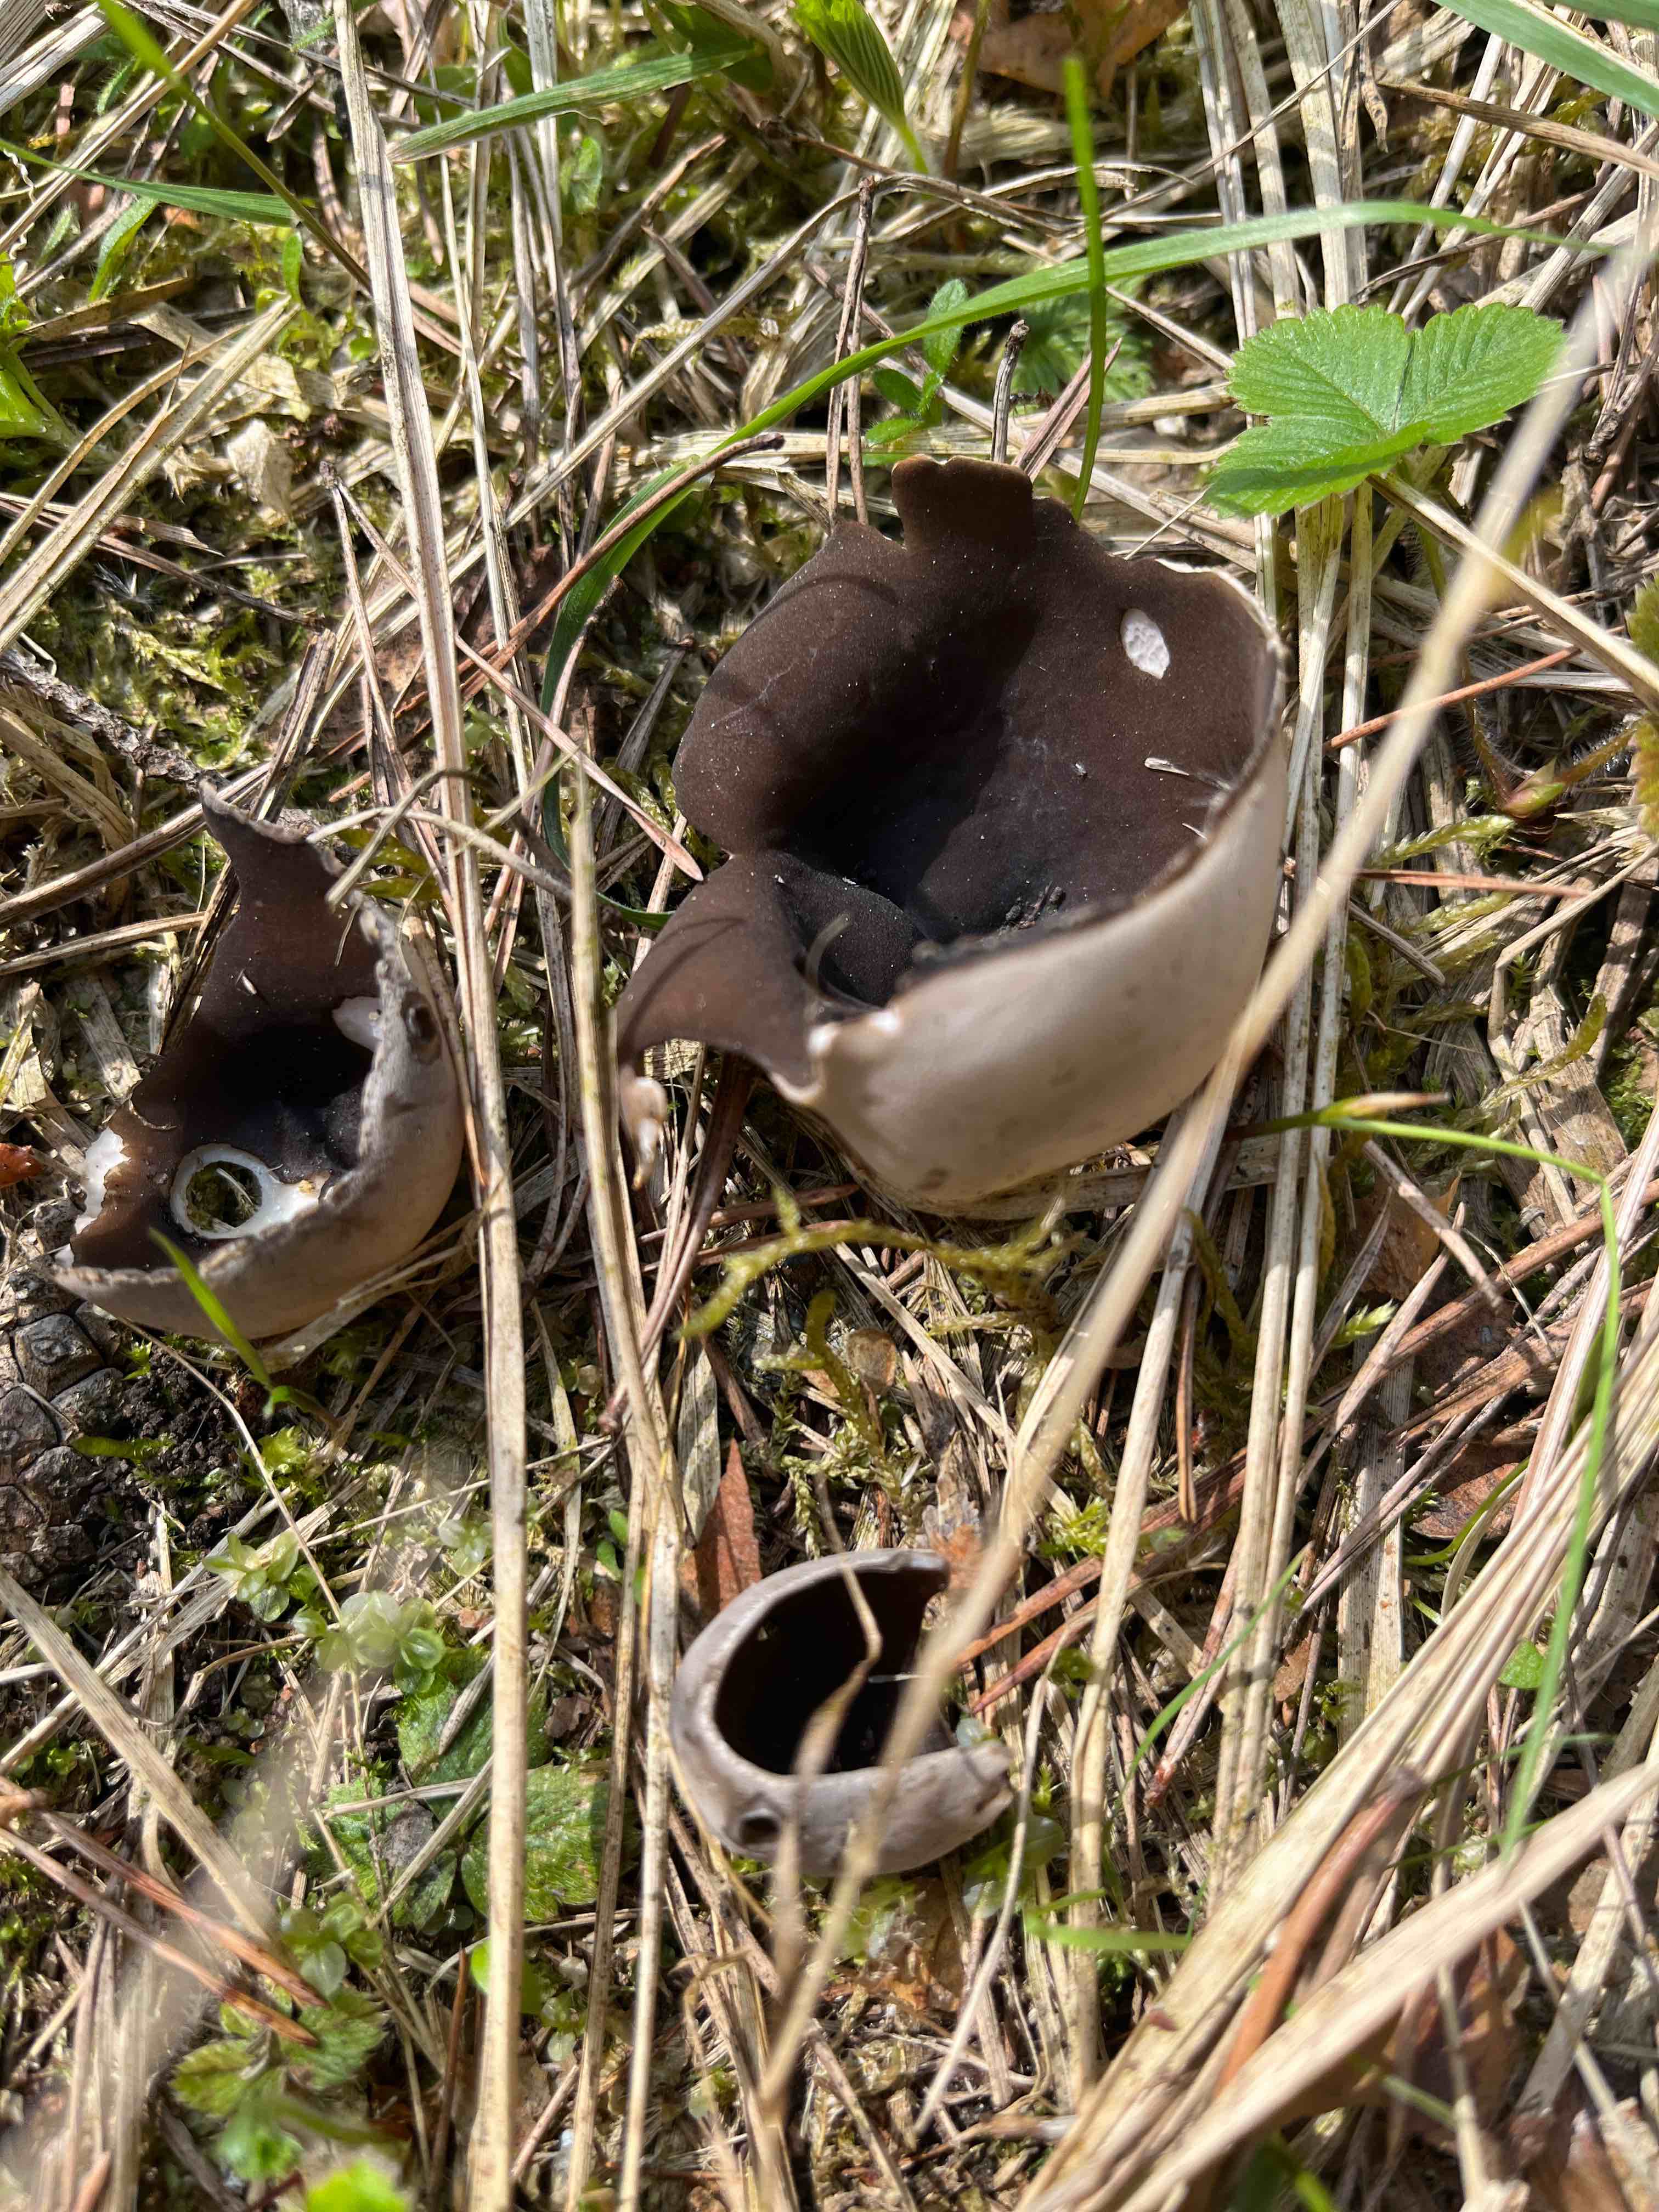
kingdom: Fungi
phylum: Ascomycota
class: Pezizomycetes
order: Pezizales
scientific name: Pezizales
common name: bægersvampordenen
